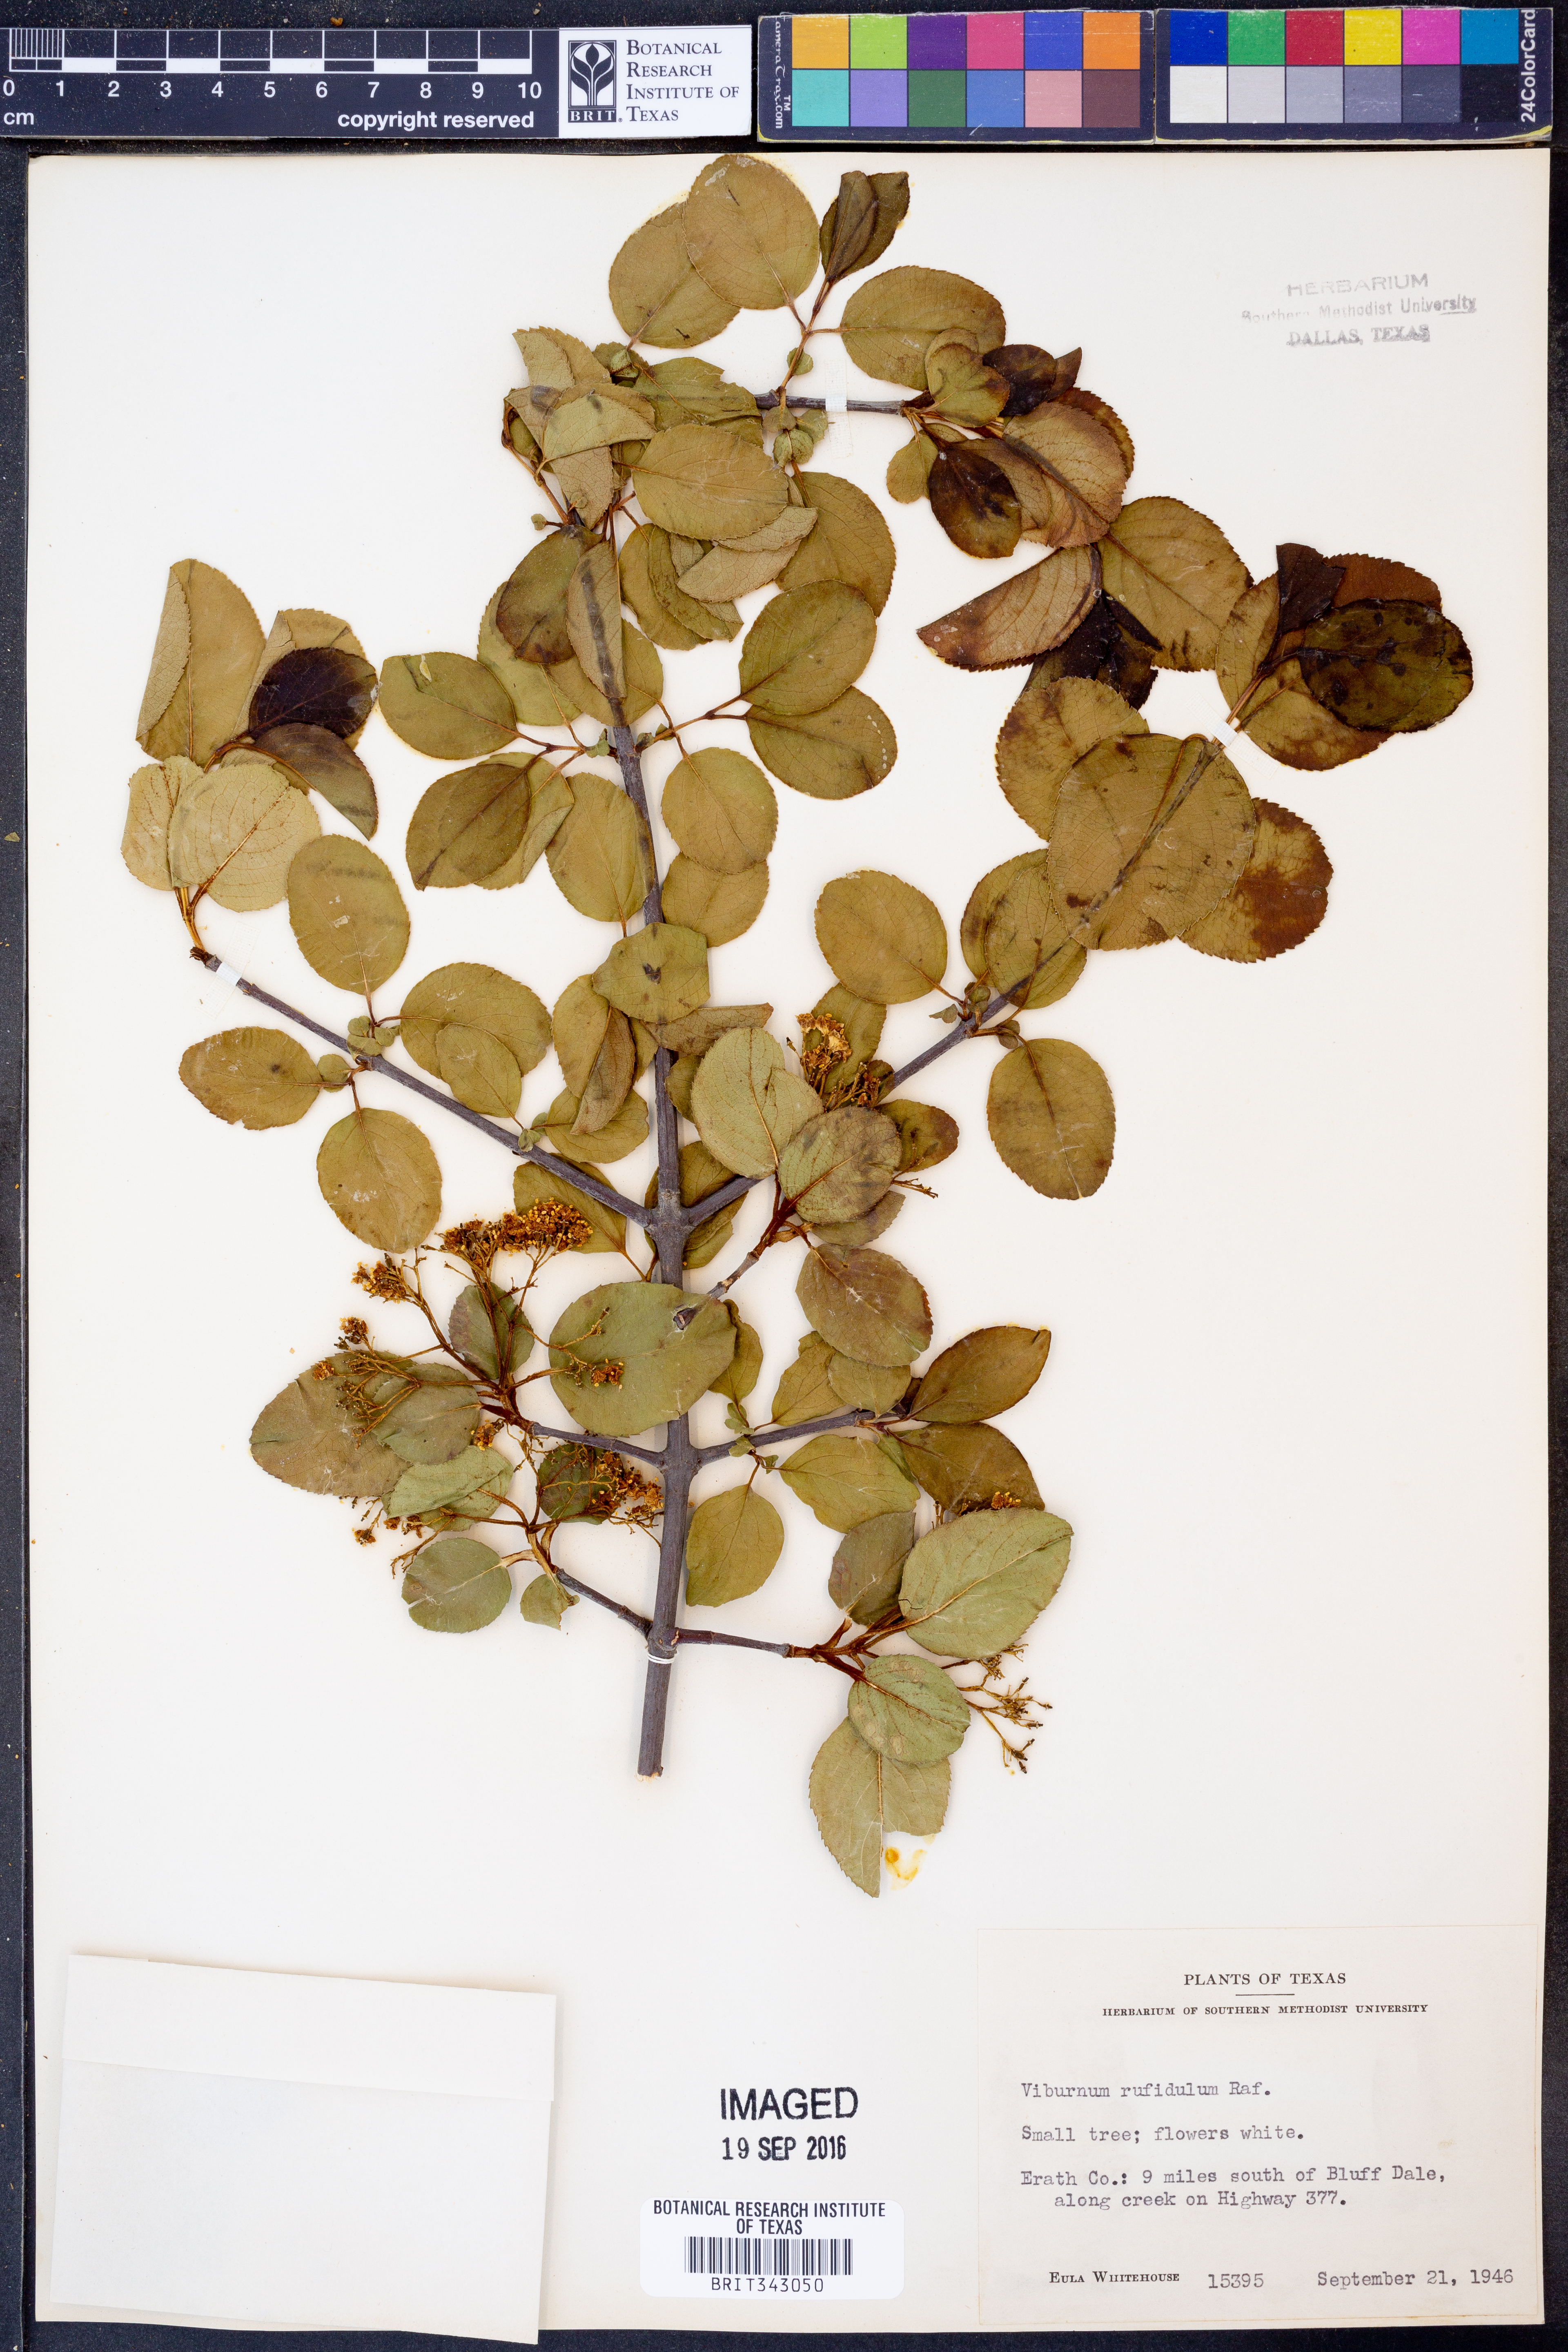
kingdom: Plantae
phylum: Tracheophyta
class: Magnoliopsida
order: Dipsacales
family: Viburnaceae
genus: Viburnum
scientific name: Viburnum rufidulum
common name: Blue haw
